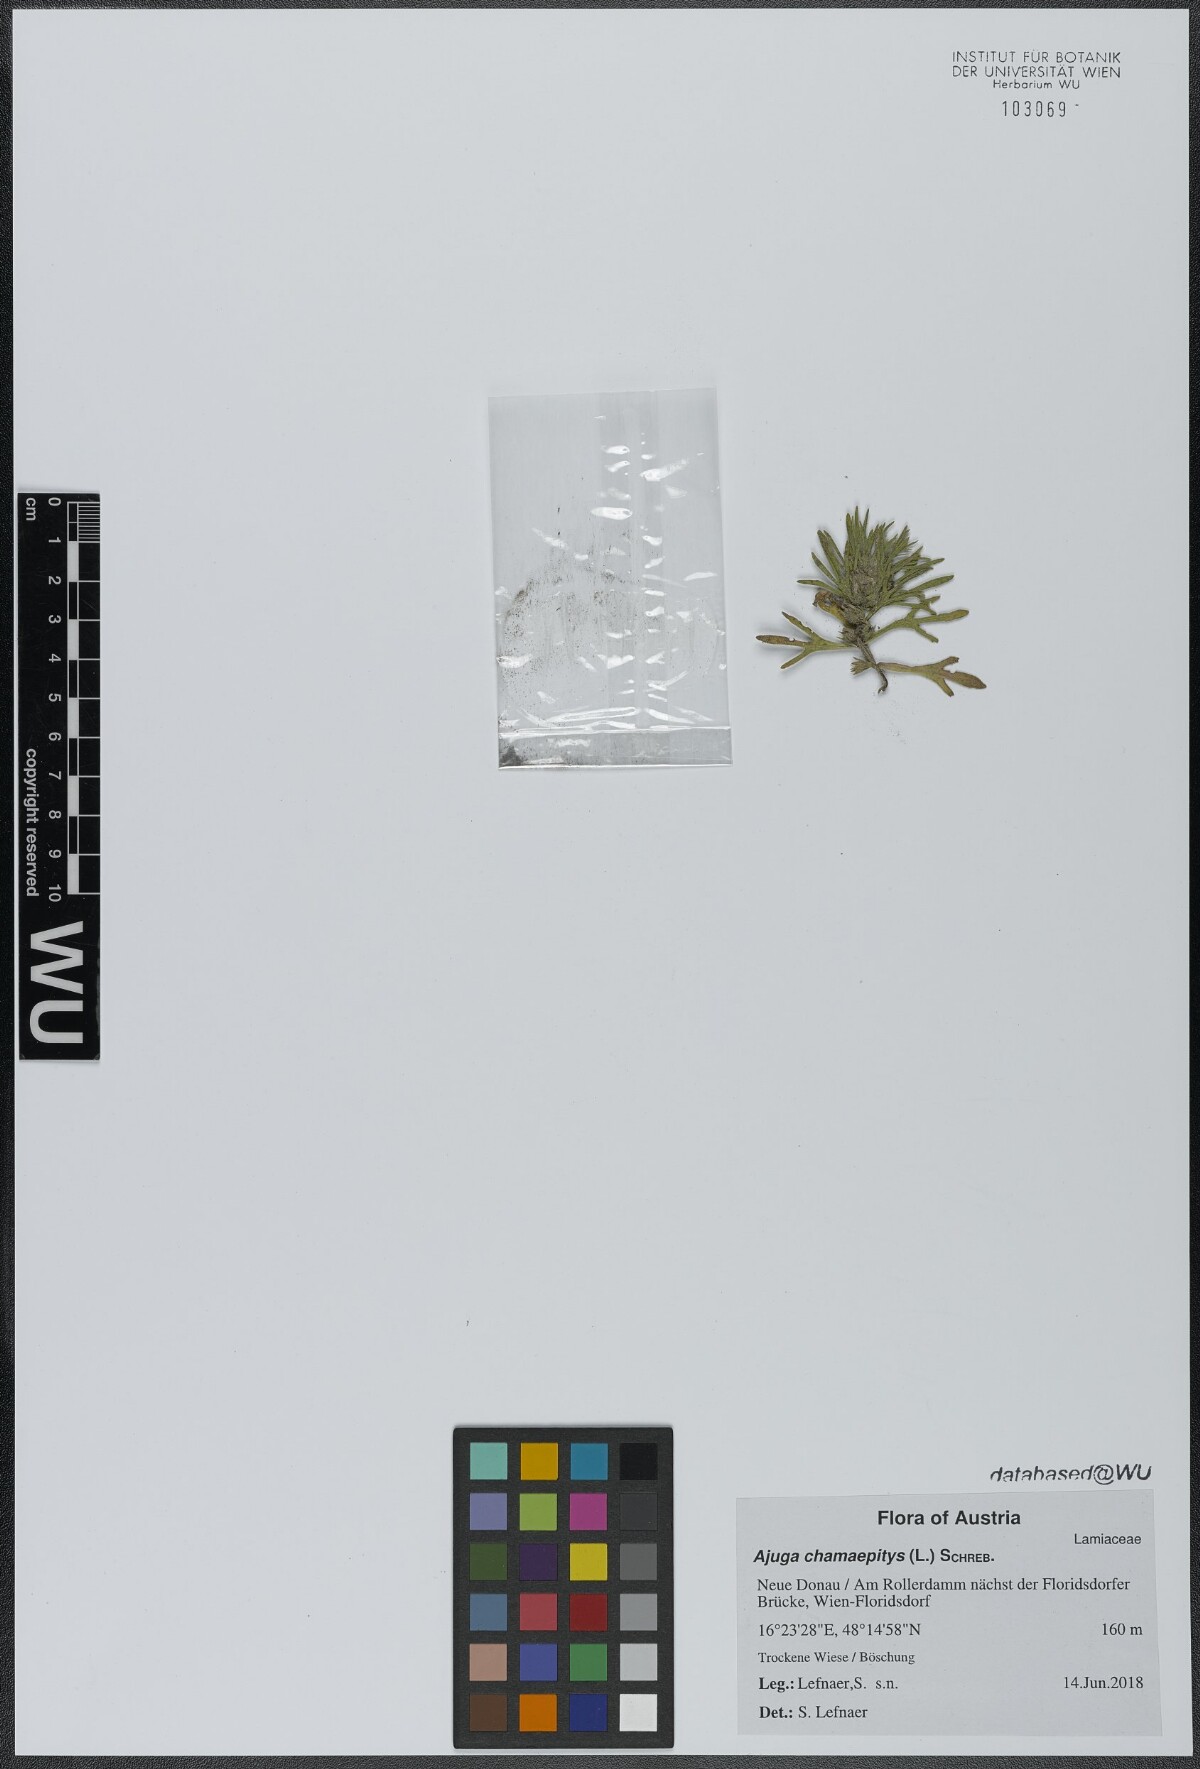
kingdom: Plantae
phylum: Tracheophyta
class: Magnoliopsida
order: Lamiales
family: Lamiaceae
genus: Ajuga
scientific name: Ajuga chamaepitys
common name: Ground-pine
